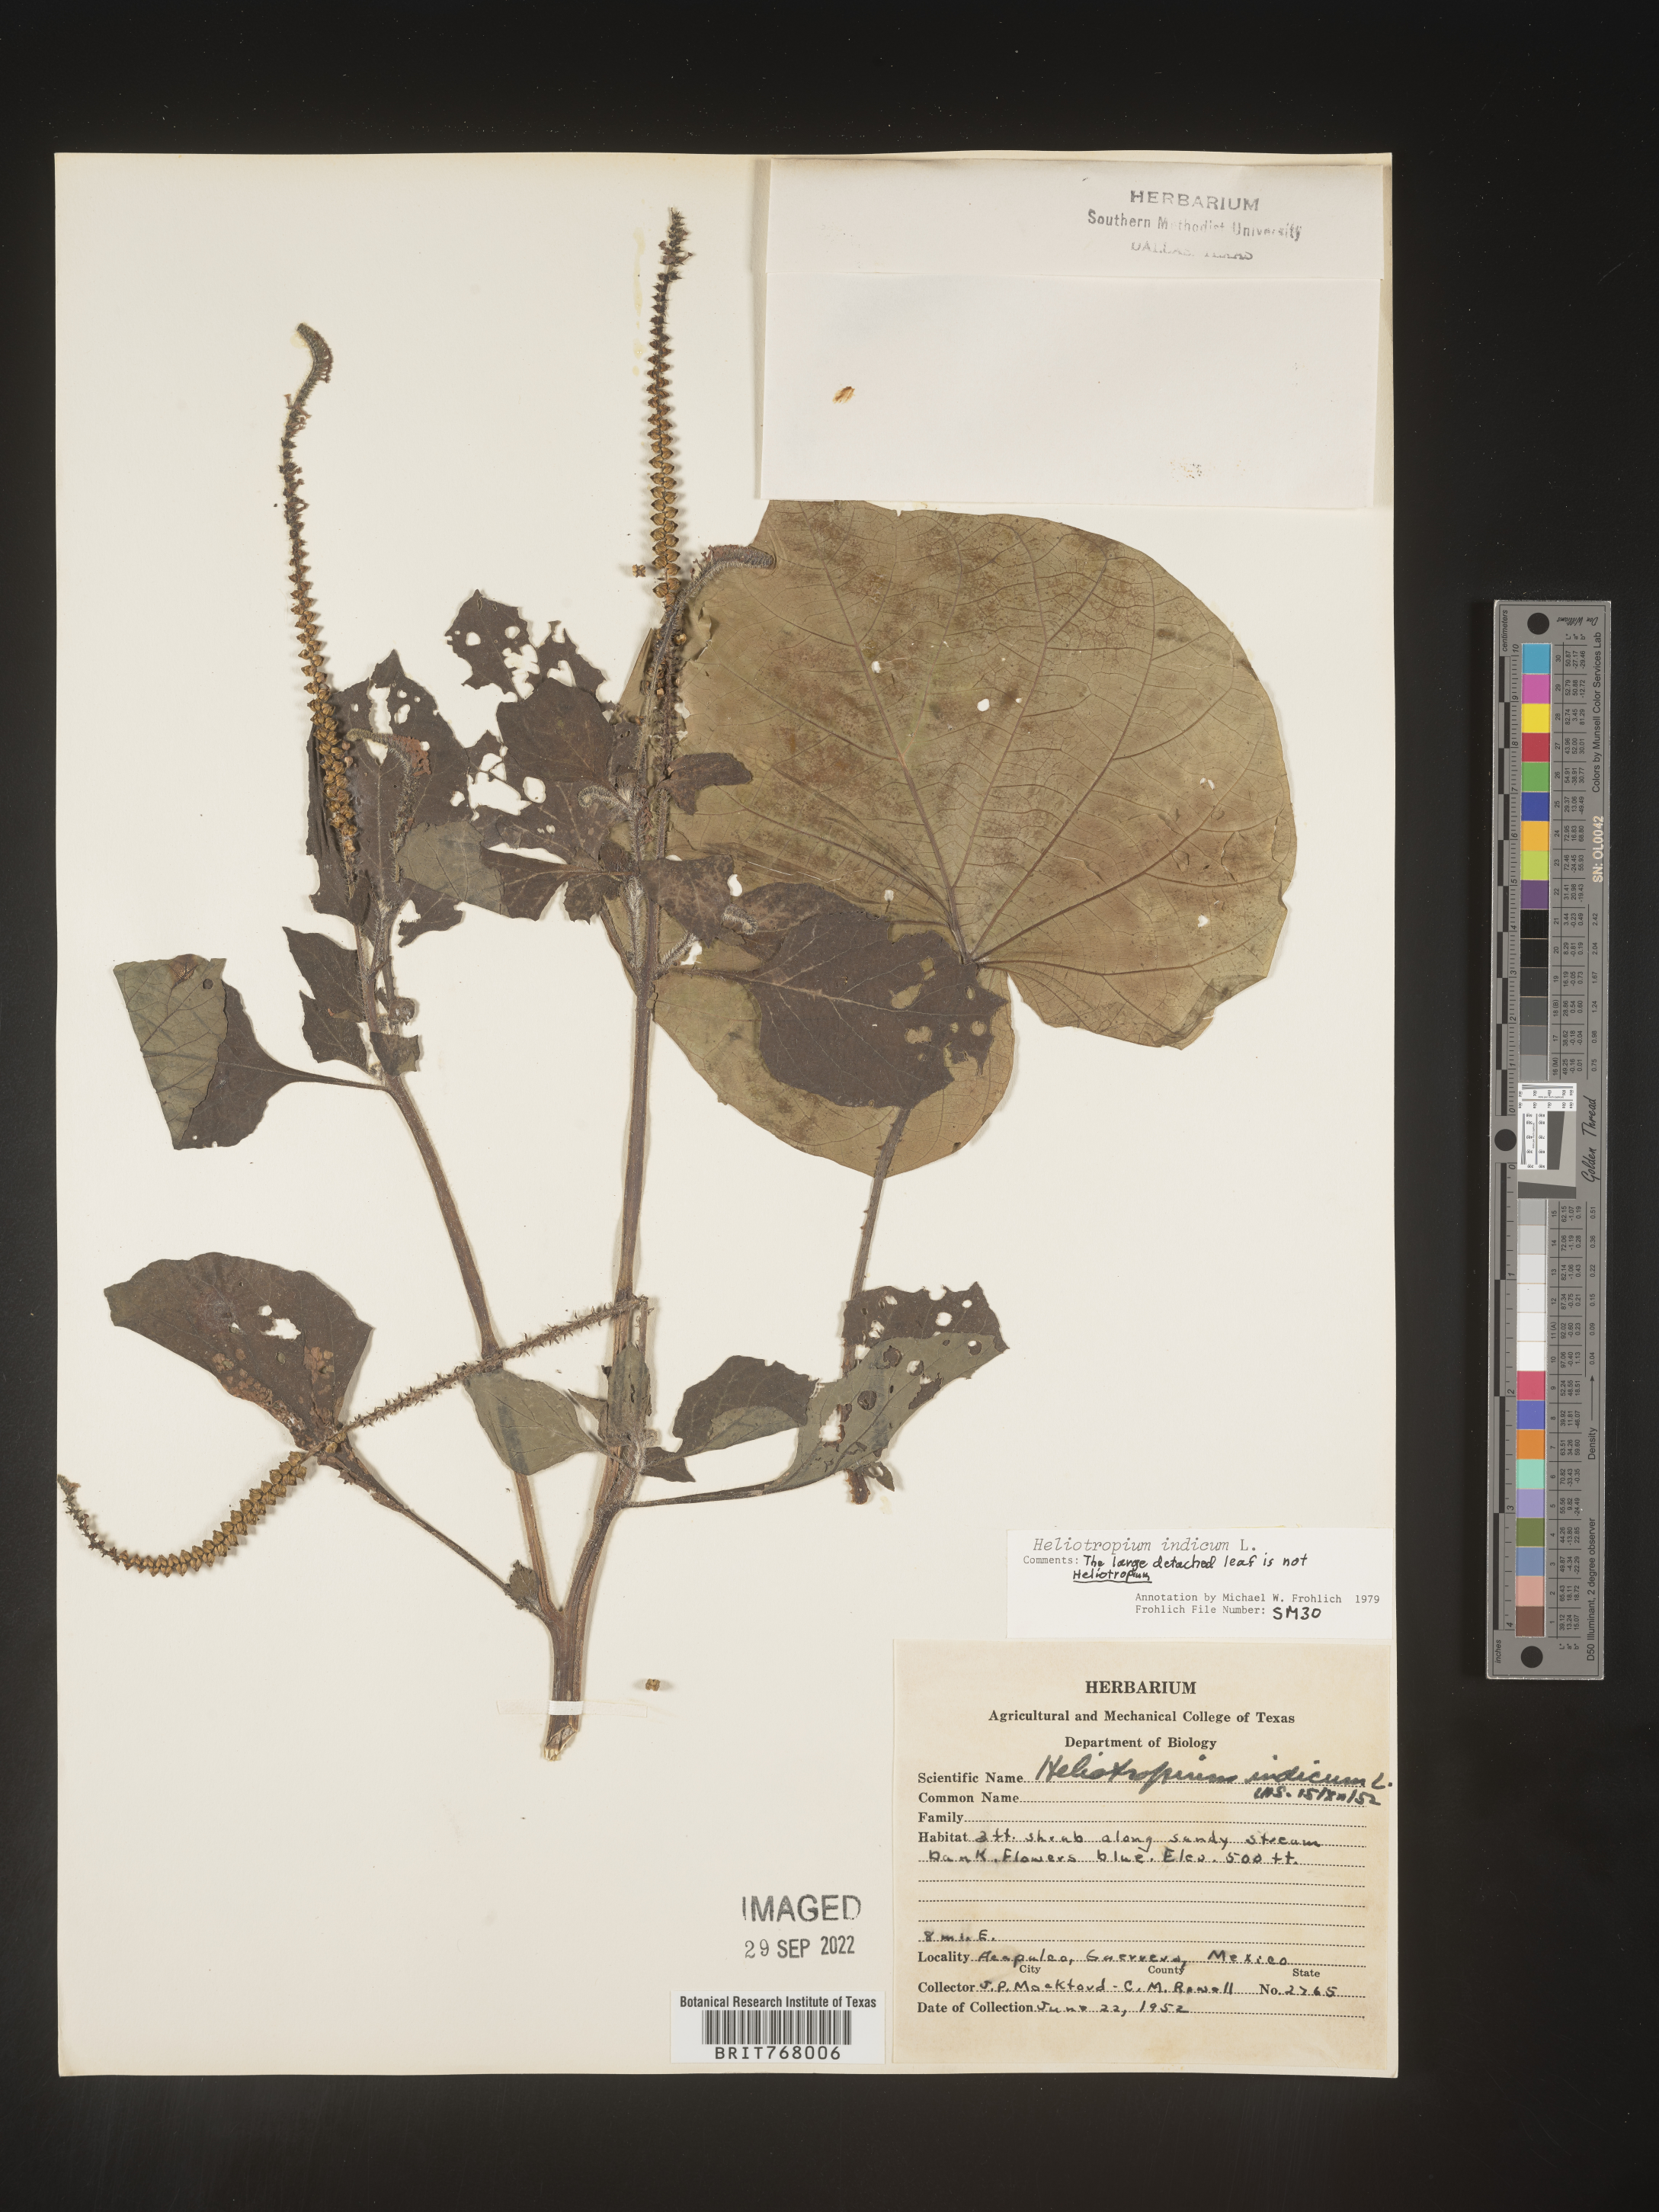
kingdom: Plantae
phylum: Tracheophyta
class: Magnoliopsida
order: Boraginales
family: Heliotropiaceae
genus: Heliotropium
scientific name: Heliotropium
